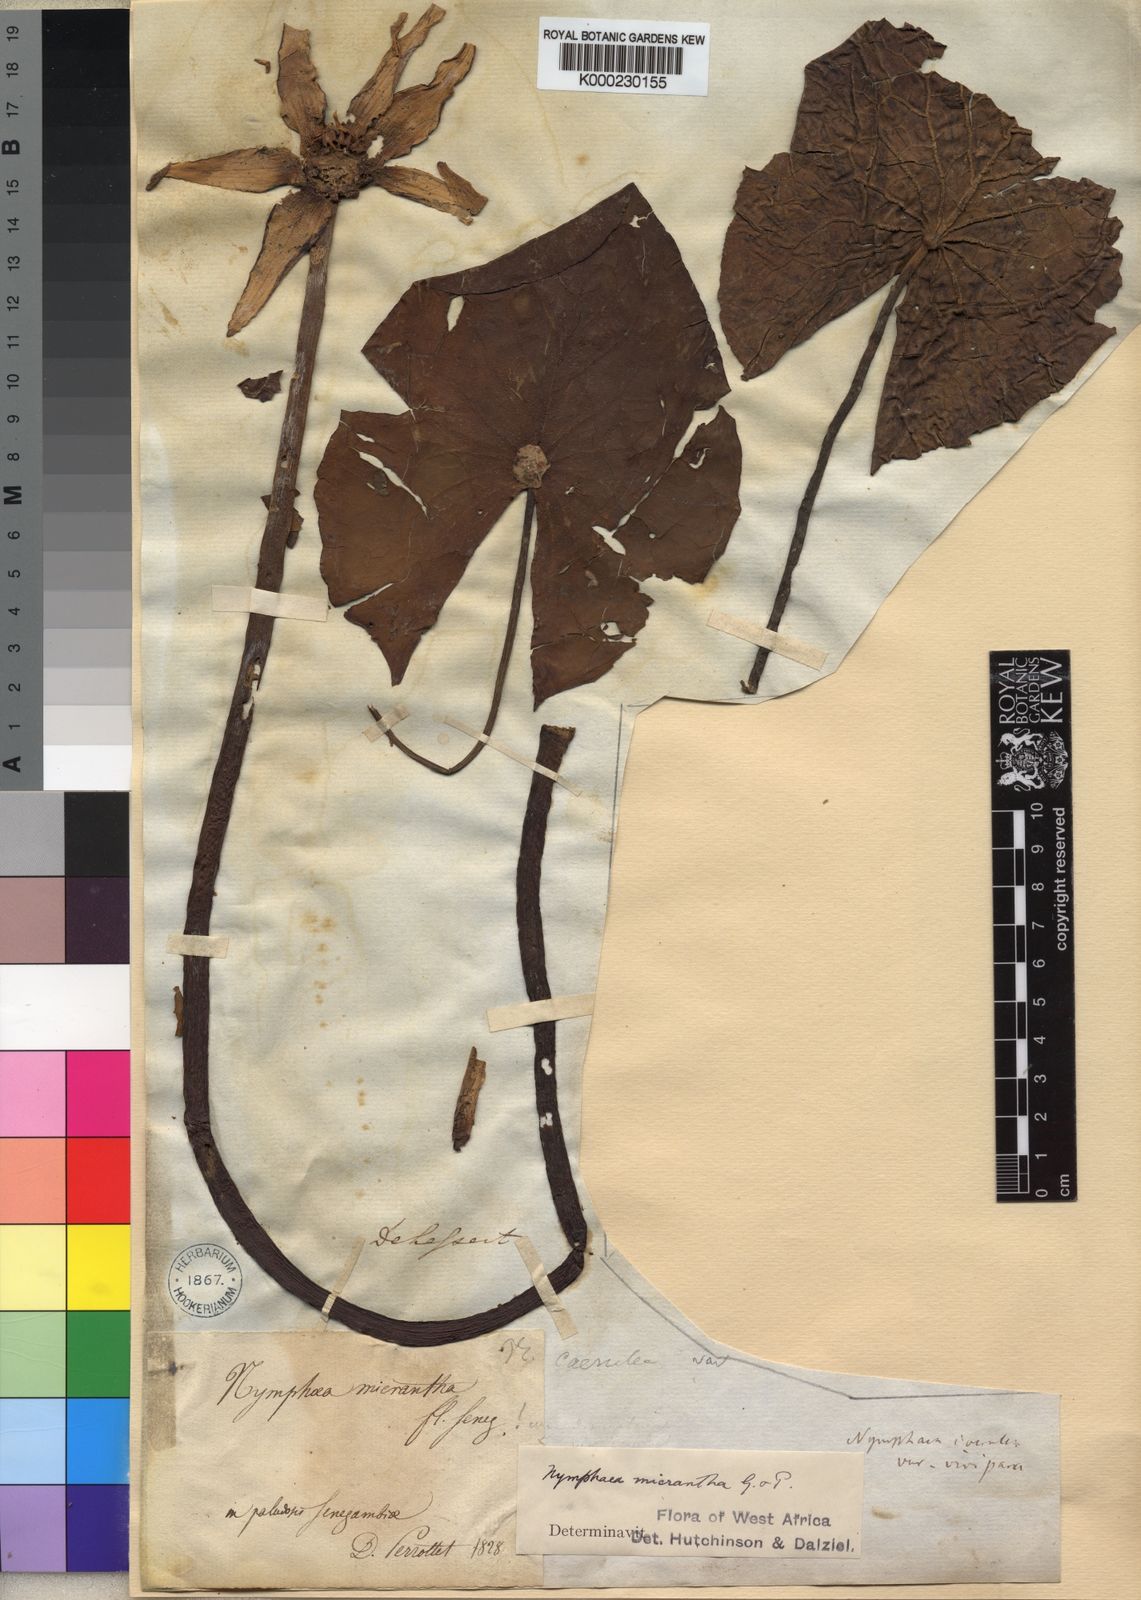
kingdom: Plantae
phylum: Tracheophyta
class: Magnoliopsida
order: Nymphaeales
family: Nymphaeaceae
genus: Nymphaea
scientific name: Nymphaea micrantha
